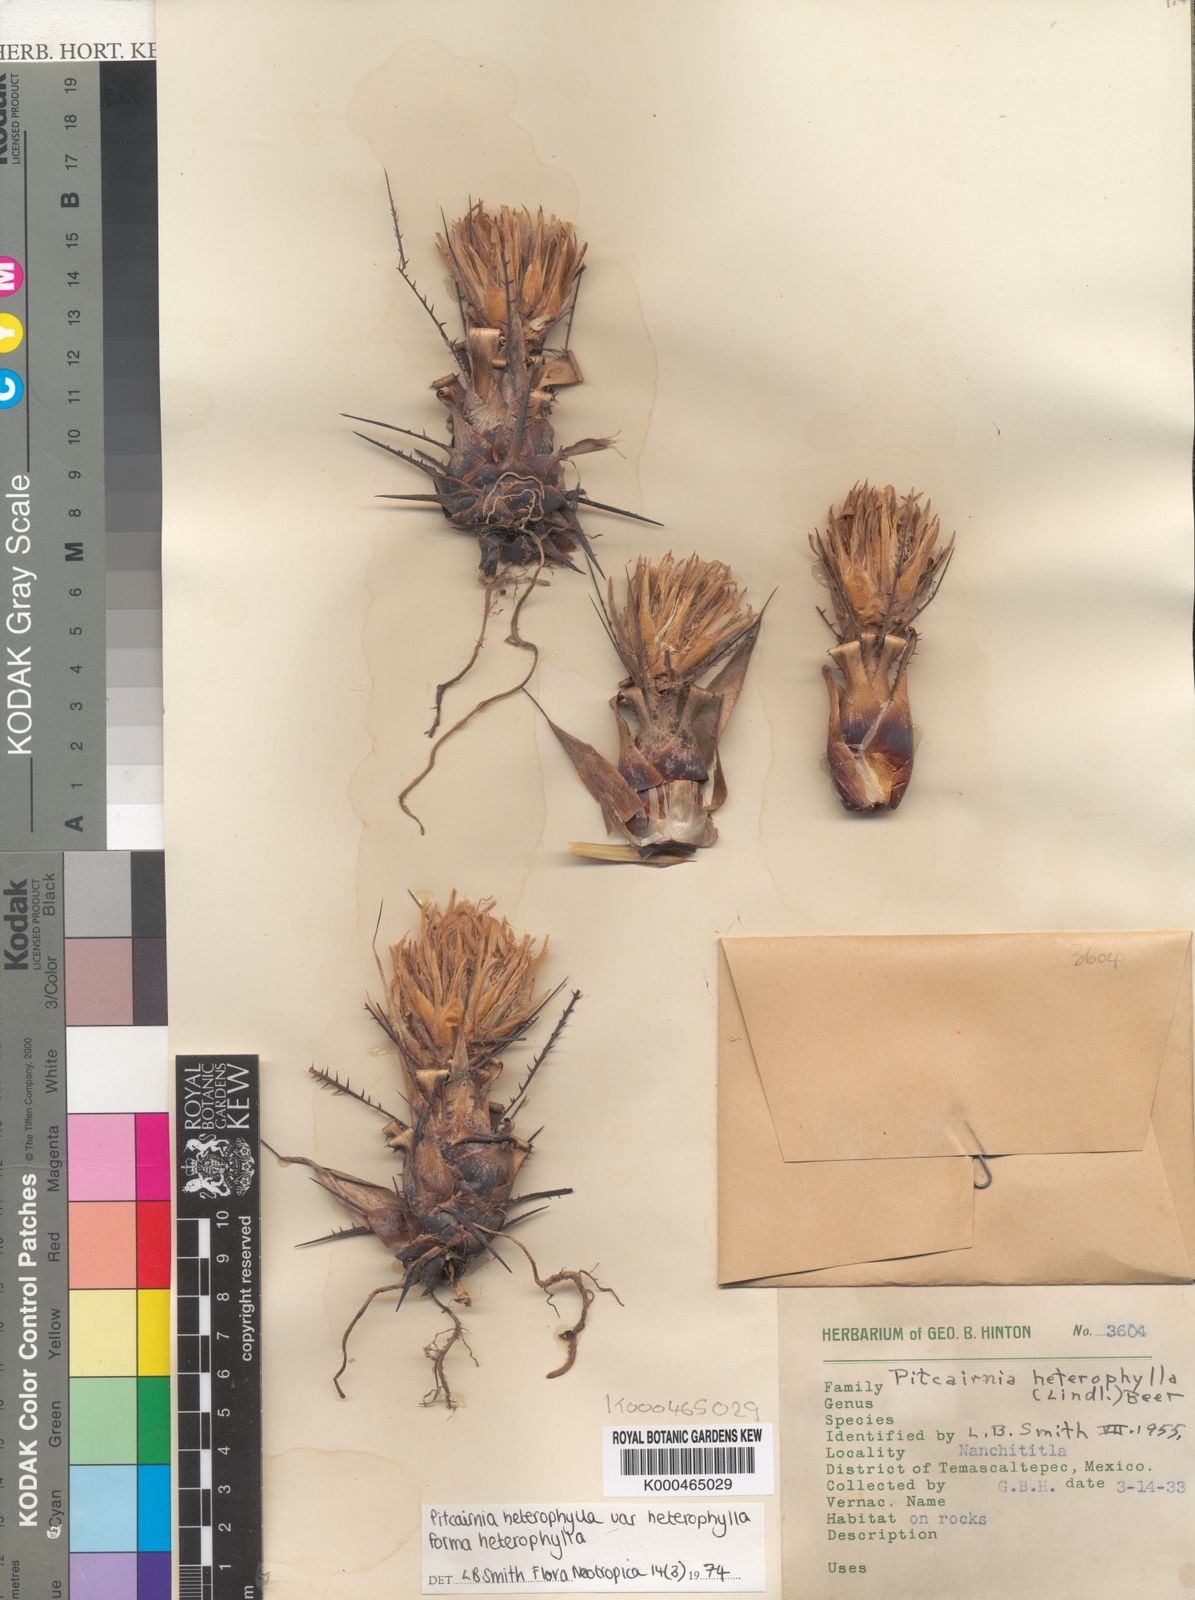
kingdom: Plantae
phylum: Tracheophyta
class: Liliopsida
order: Poales
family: Bromeliaceae
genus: Pitcairnia
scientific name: Pitcairnia heterophylla
